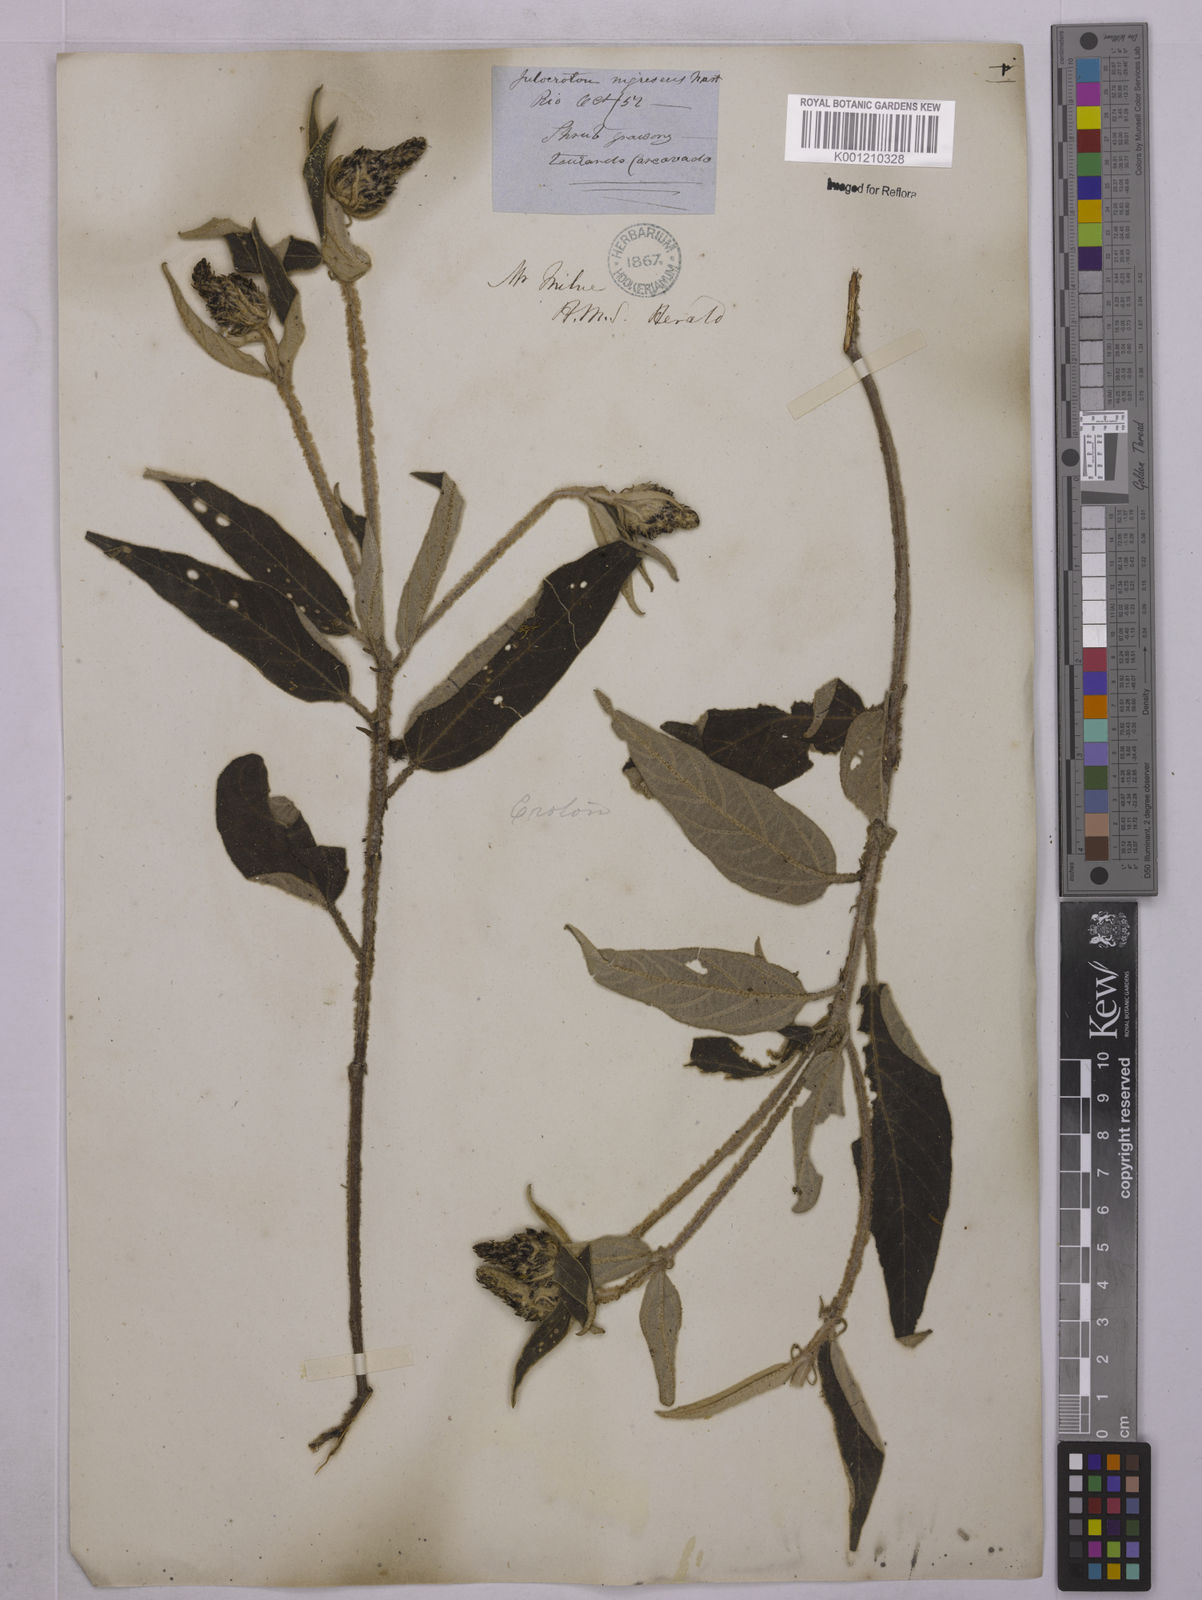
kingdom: Plantae
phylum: Tracheophyta
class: Magnoliopsida
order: Malpighiales
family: Euphorbiaceae
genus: Croton
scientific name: Croton gnaphaloides
